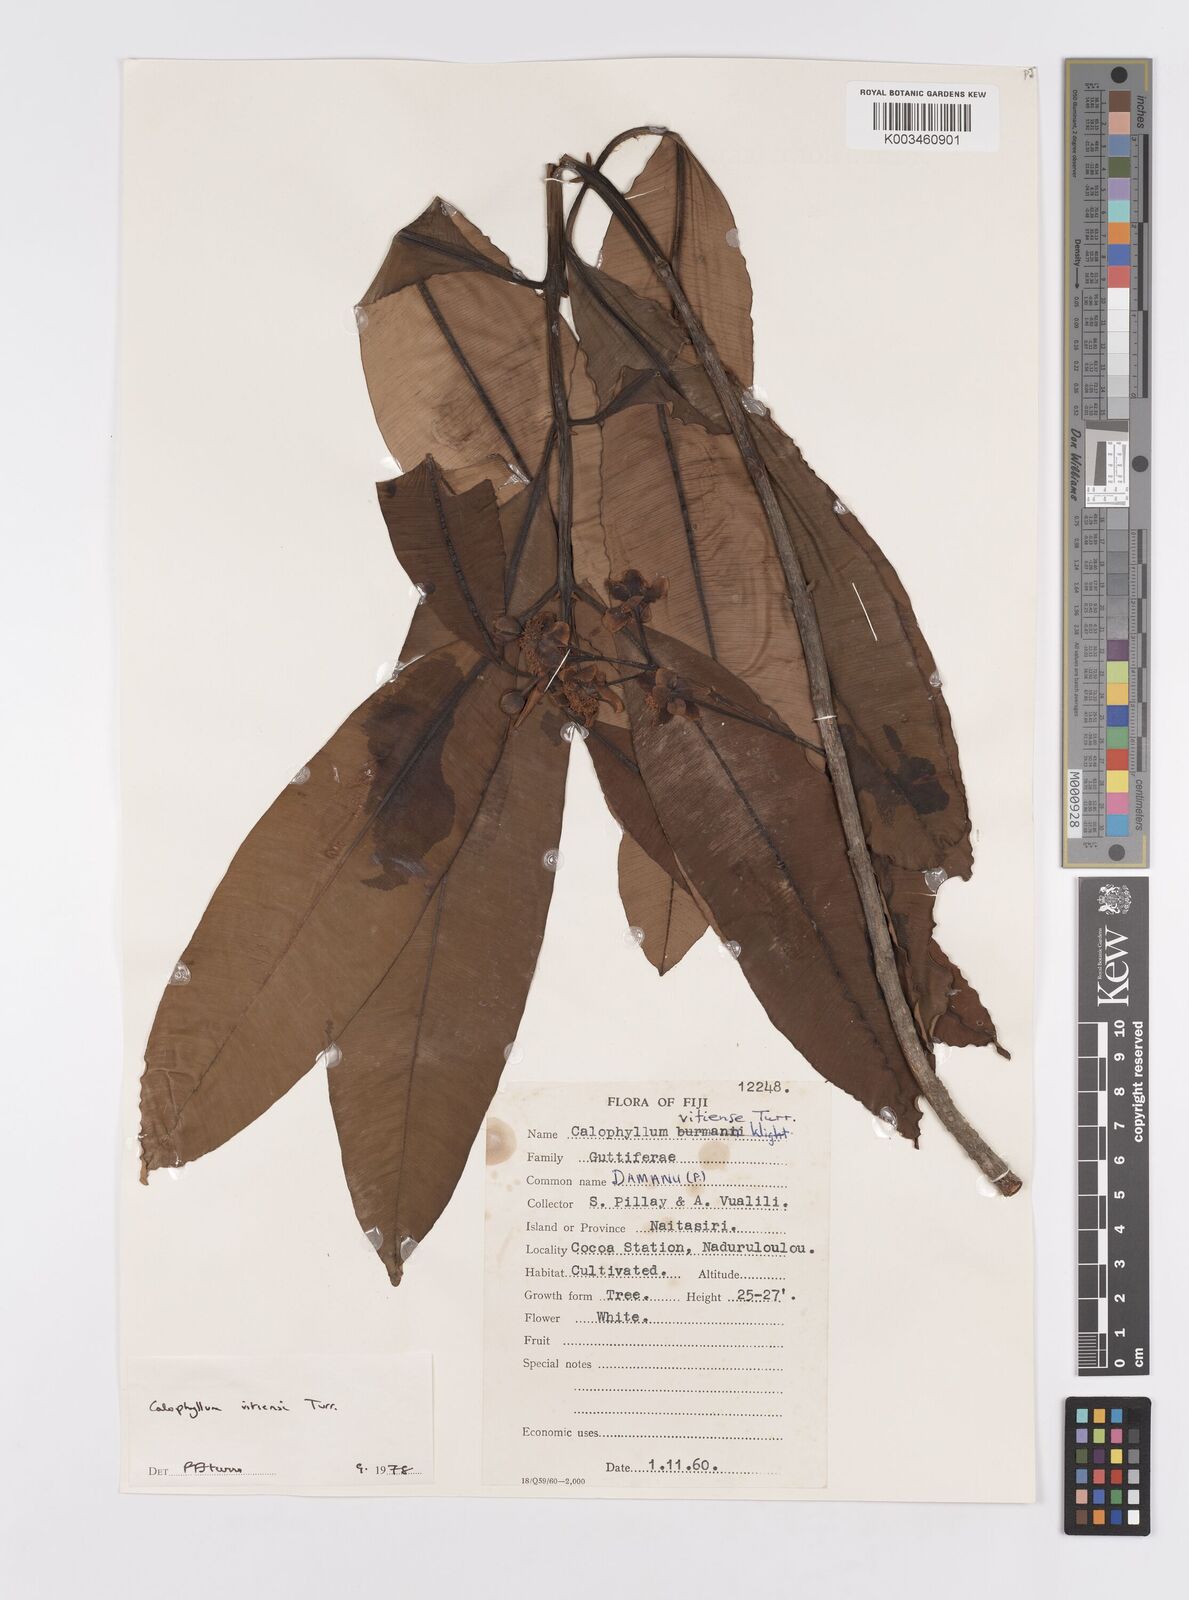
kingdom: Plantae
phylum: Tracheophyta
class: Magnoliopsida
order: Malpighiales
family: Calophyllaceae
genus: Calophyllum
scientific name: Calophyllum vitiense
